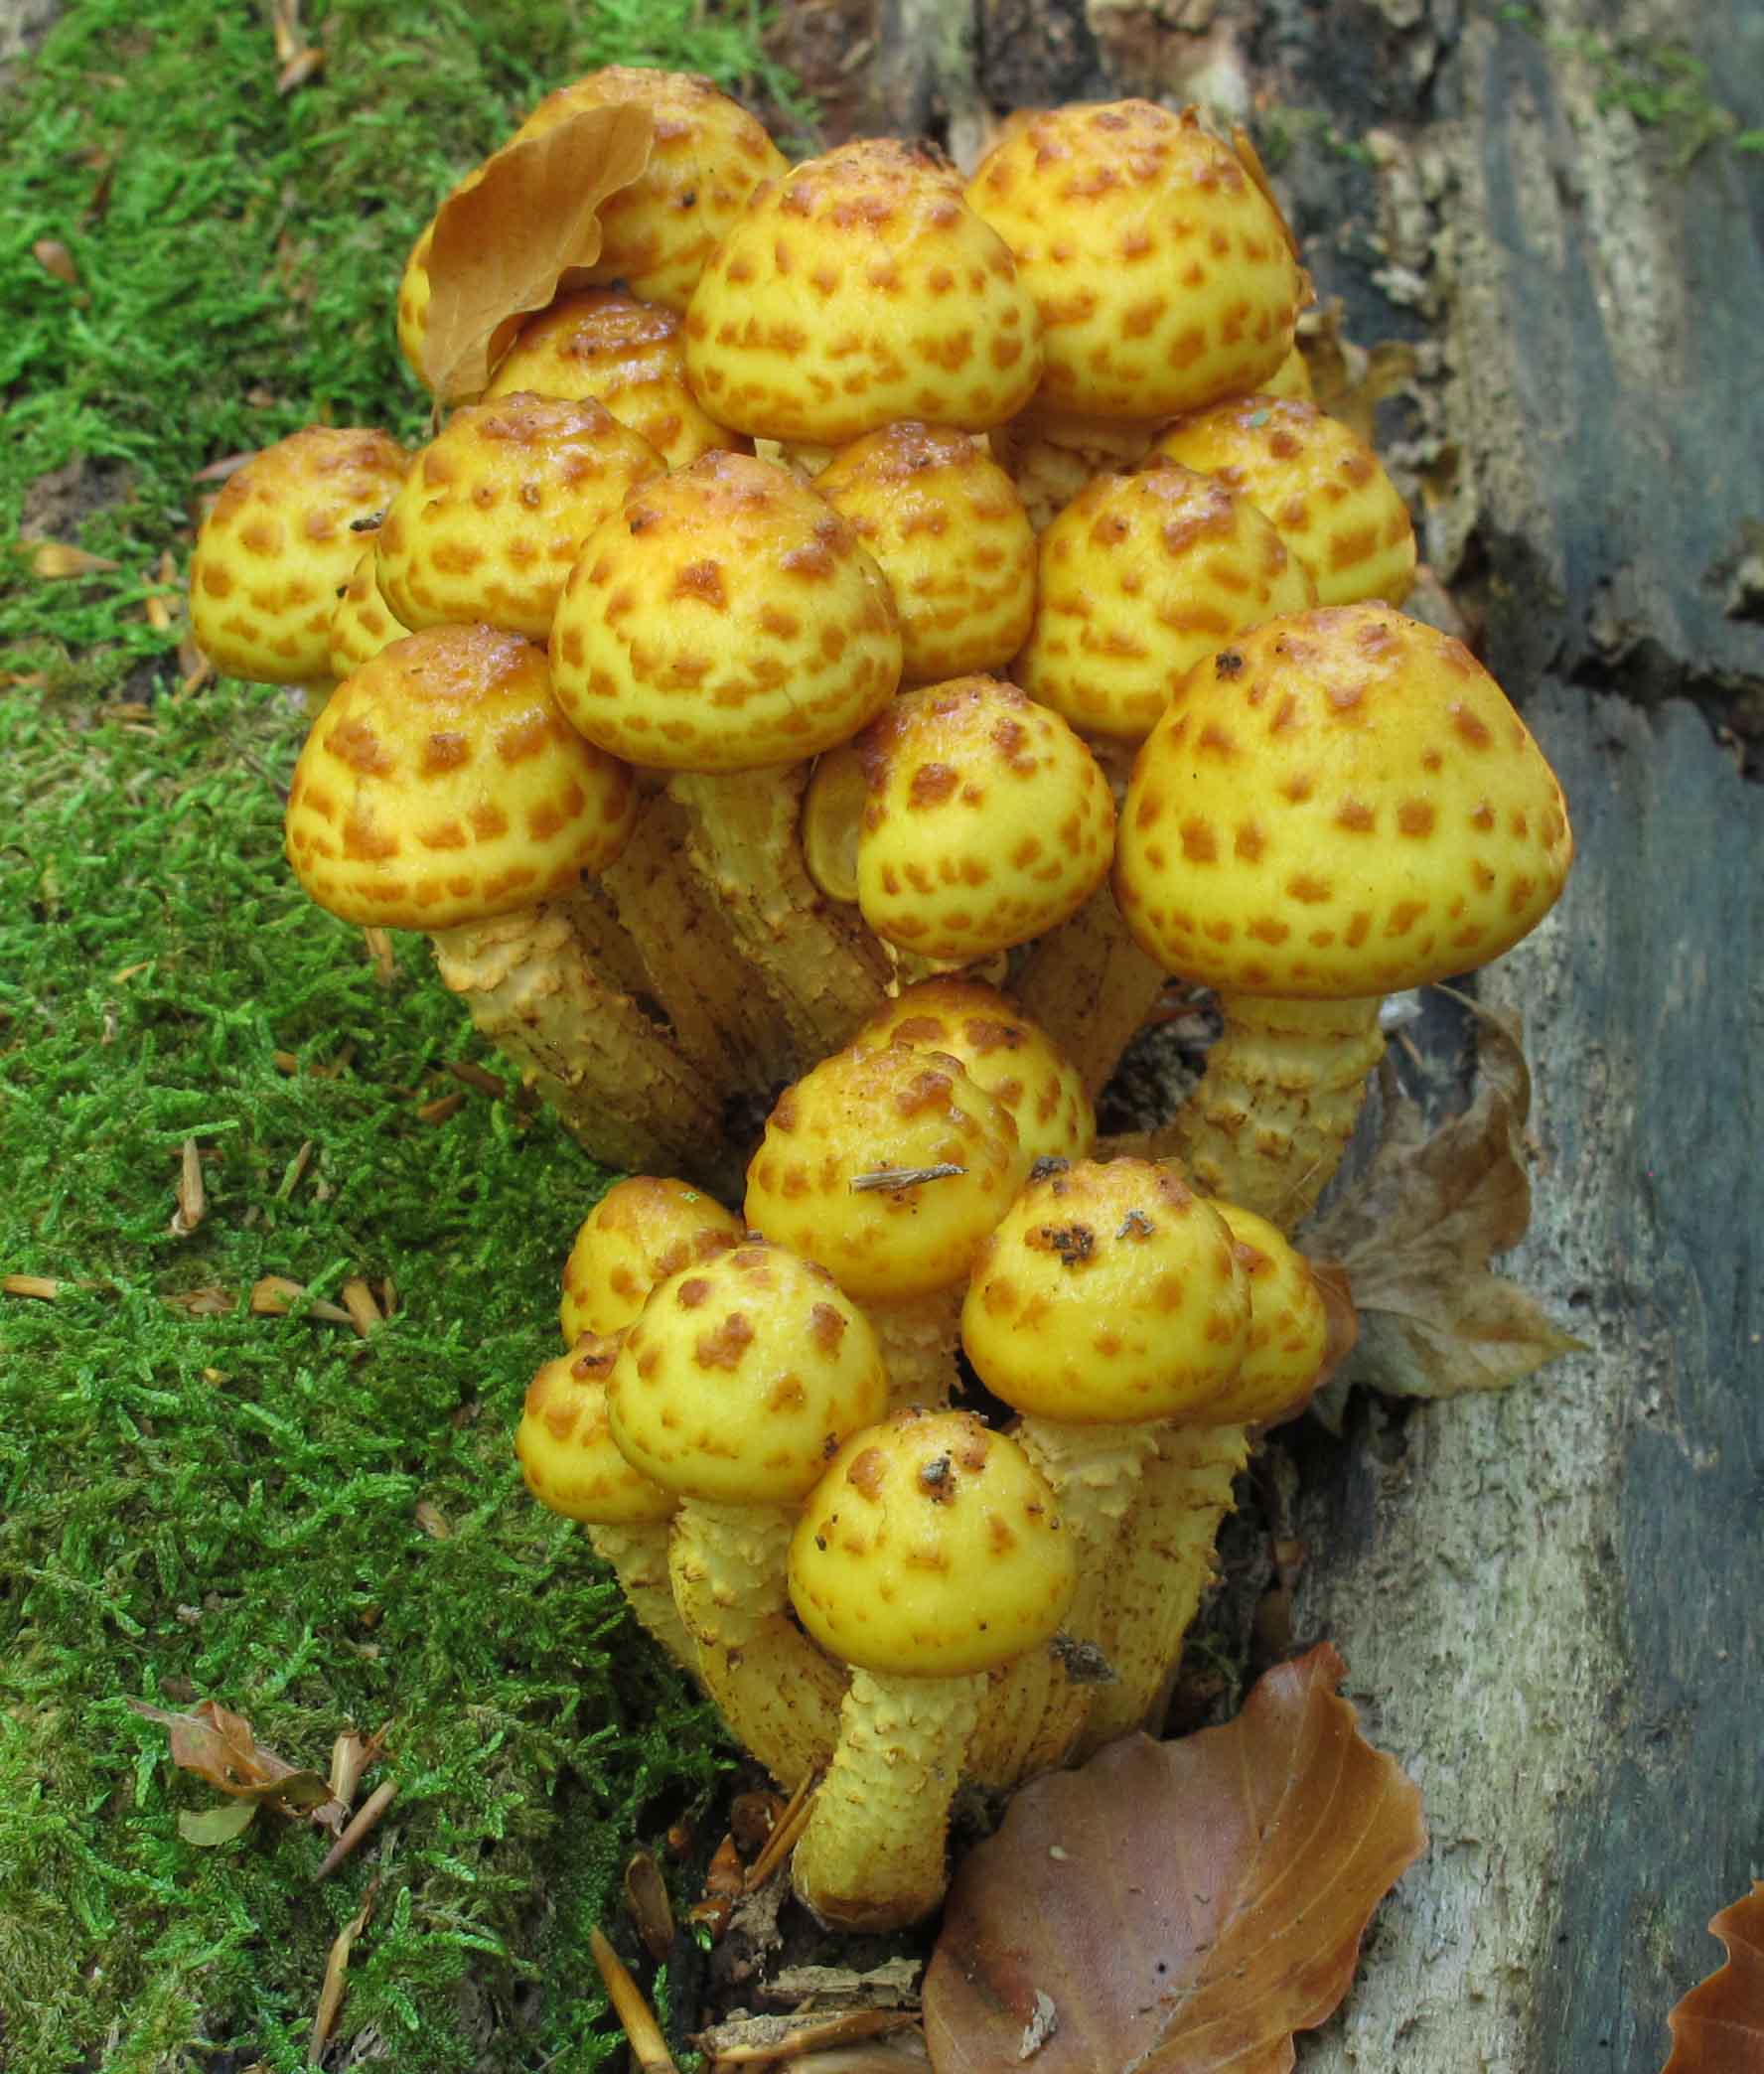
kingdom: Fungi
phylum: Basidiomycota
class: Agaricomycetes
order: Agaricales
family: Strophariaceae
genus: Pholiota
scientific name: Pholiota adiposa
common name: højtsiddende skælhat
